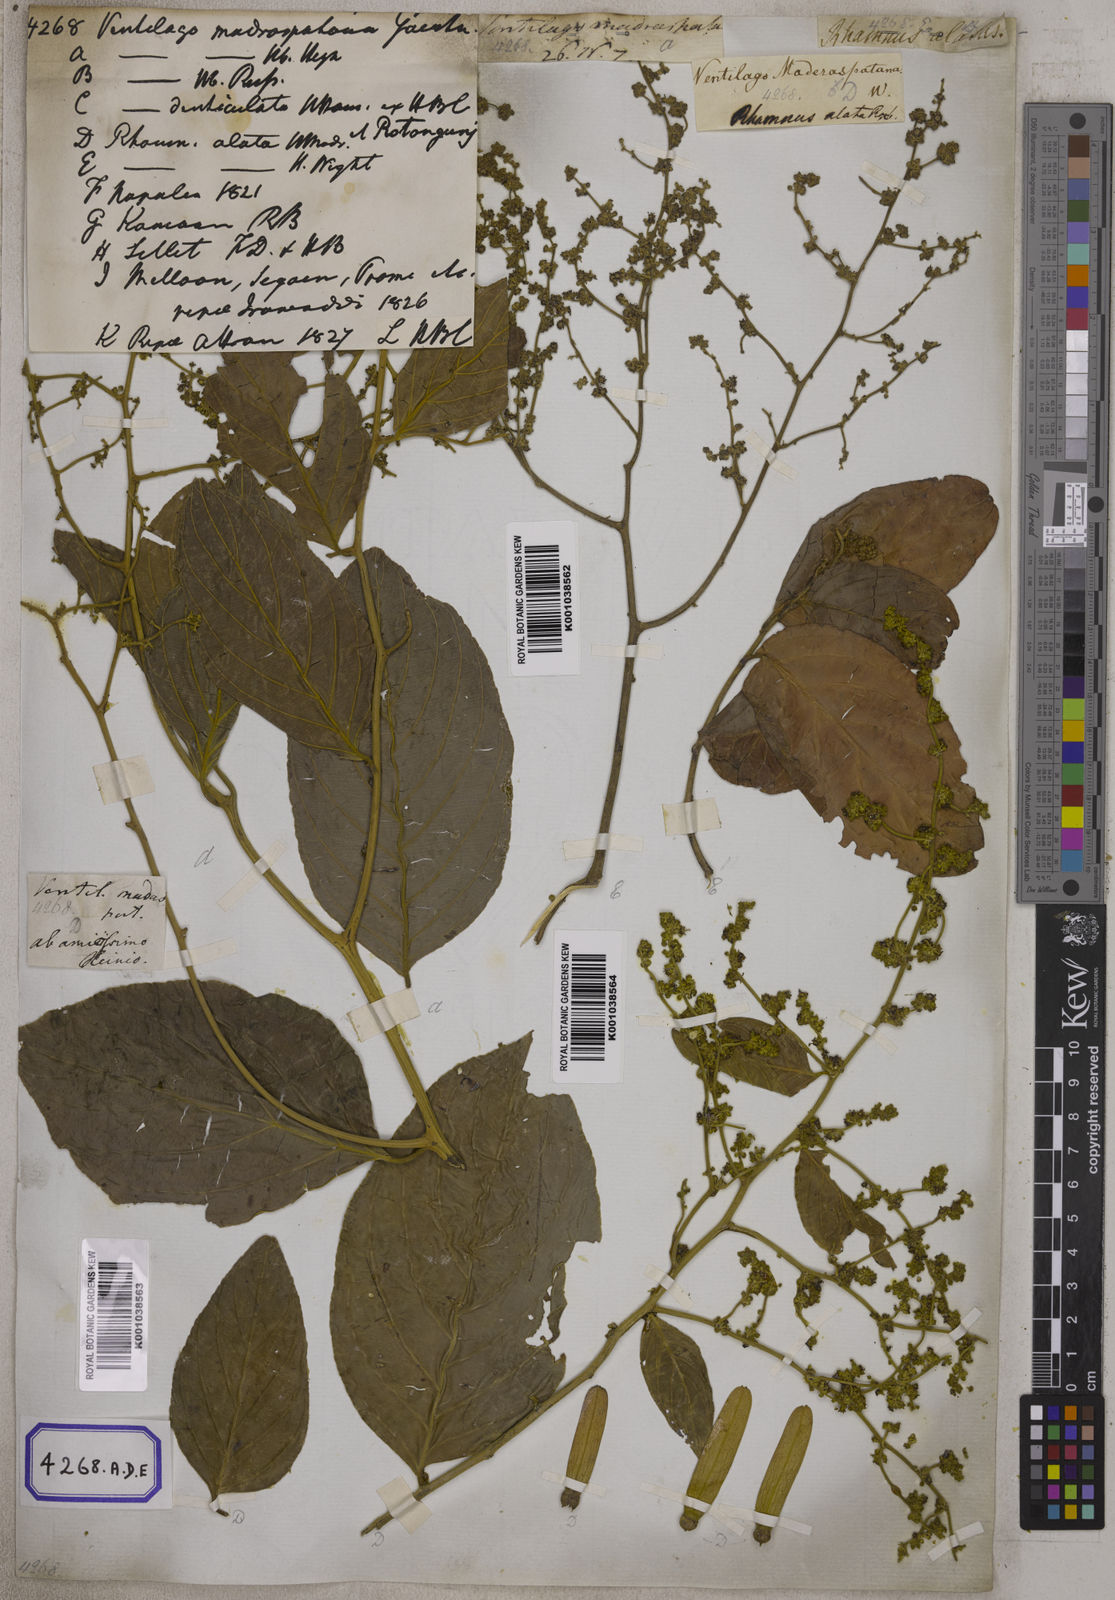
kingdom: Plantae
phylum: Tracheophyta
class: Magnoliopsida
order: Rosales
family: Rhamnaceae
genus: Ventilago
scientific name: Ventilago madraspatana
